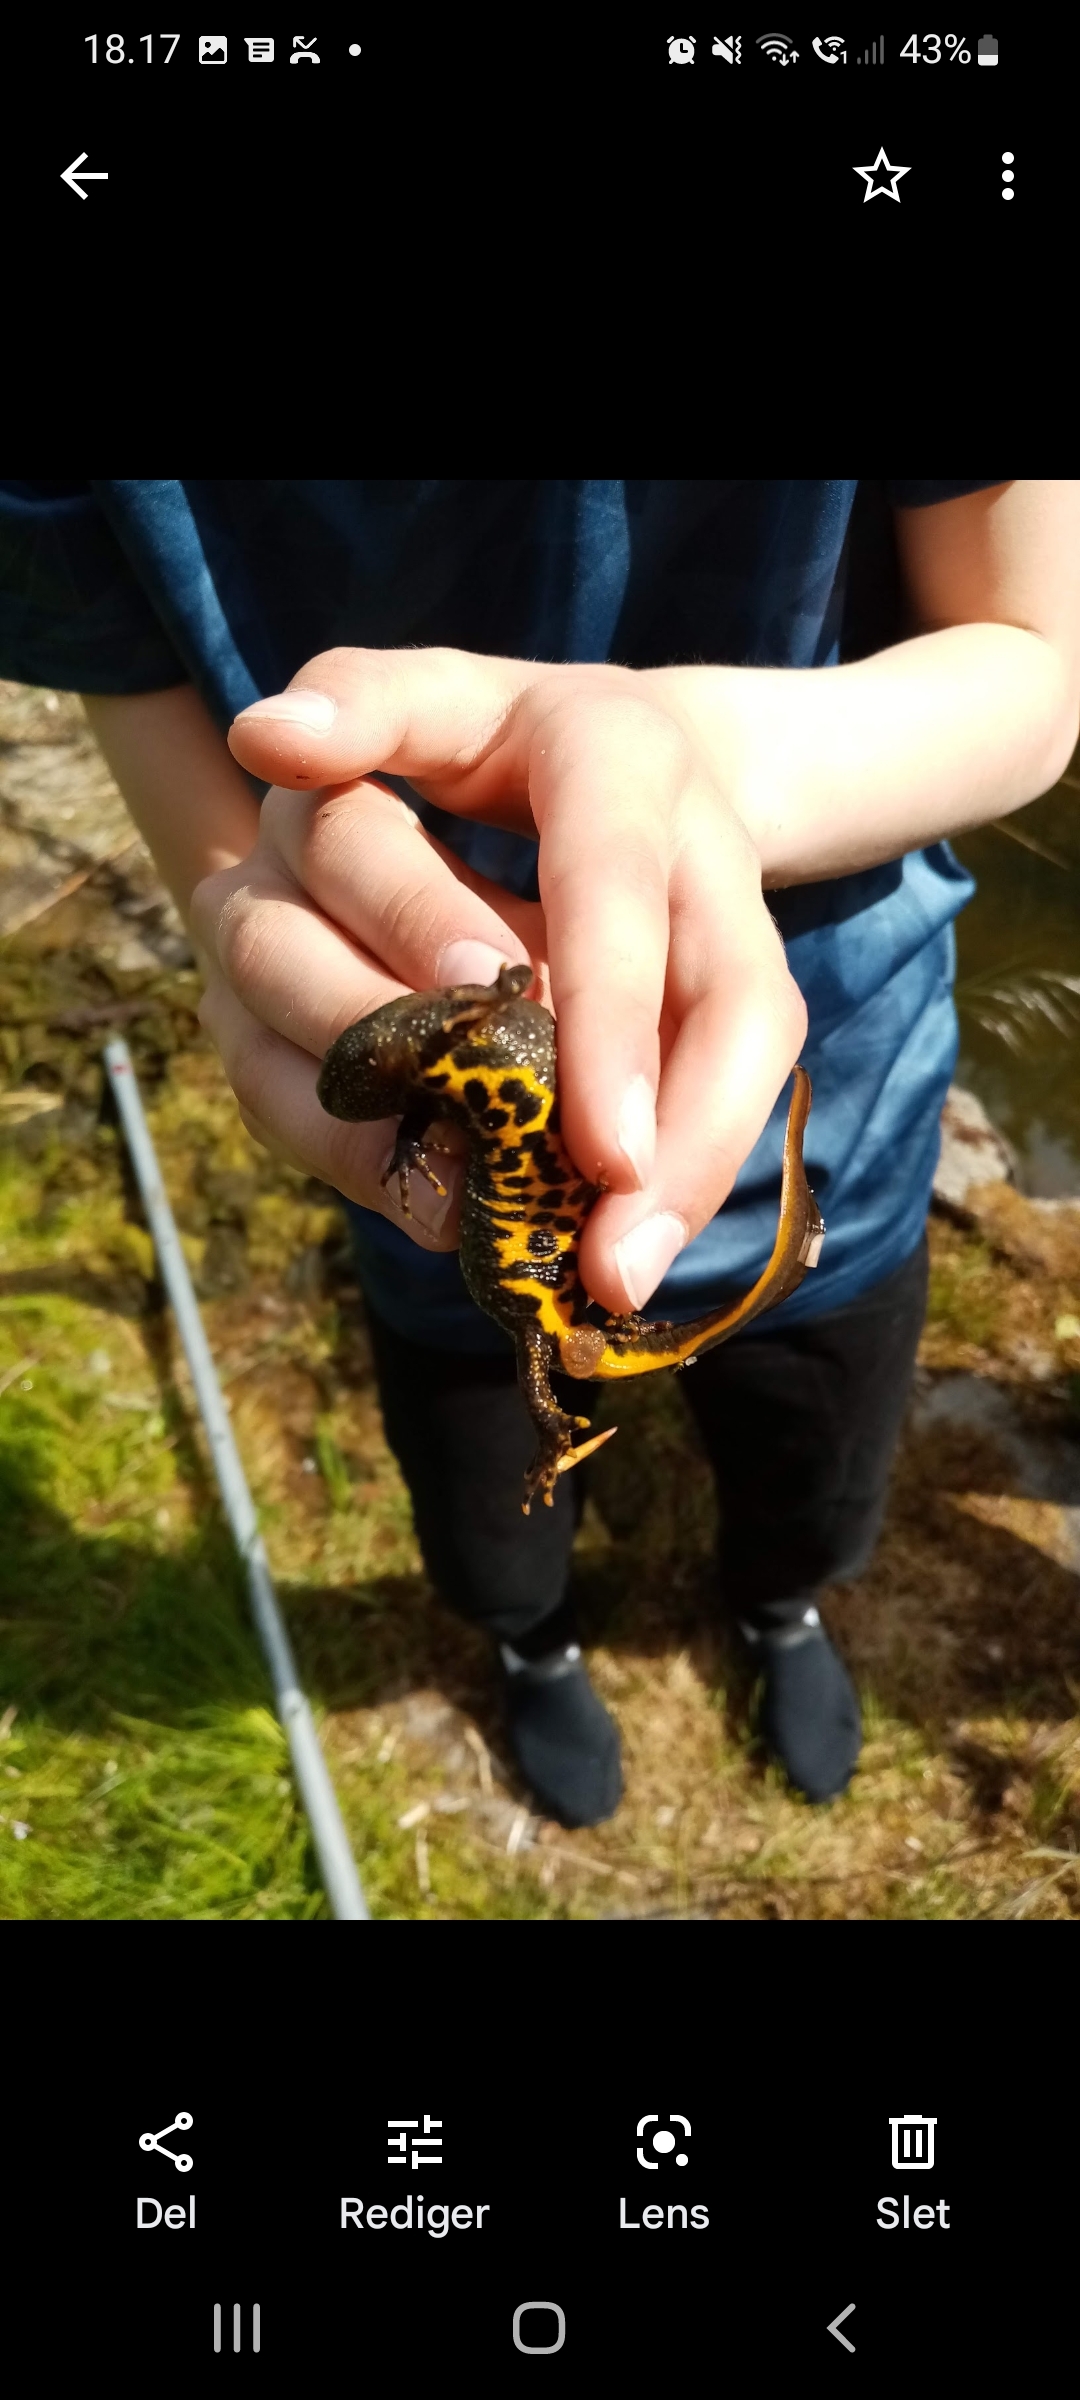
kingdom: Animalia
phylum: Chordata
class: Amphibia
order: Caudata
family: Salamandridae
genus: Triturus
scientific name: Triturus cristatus
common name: Stor vandsalamander
